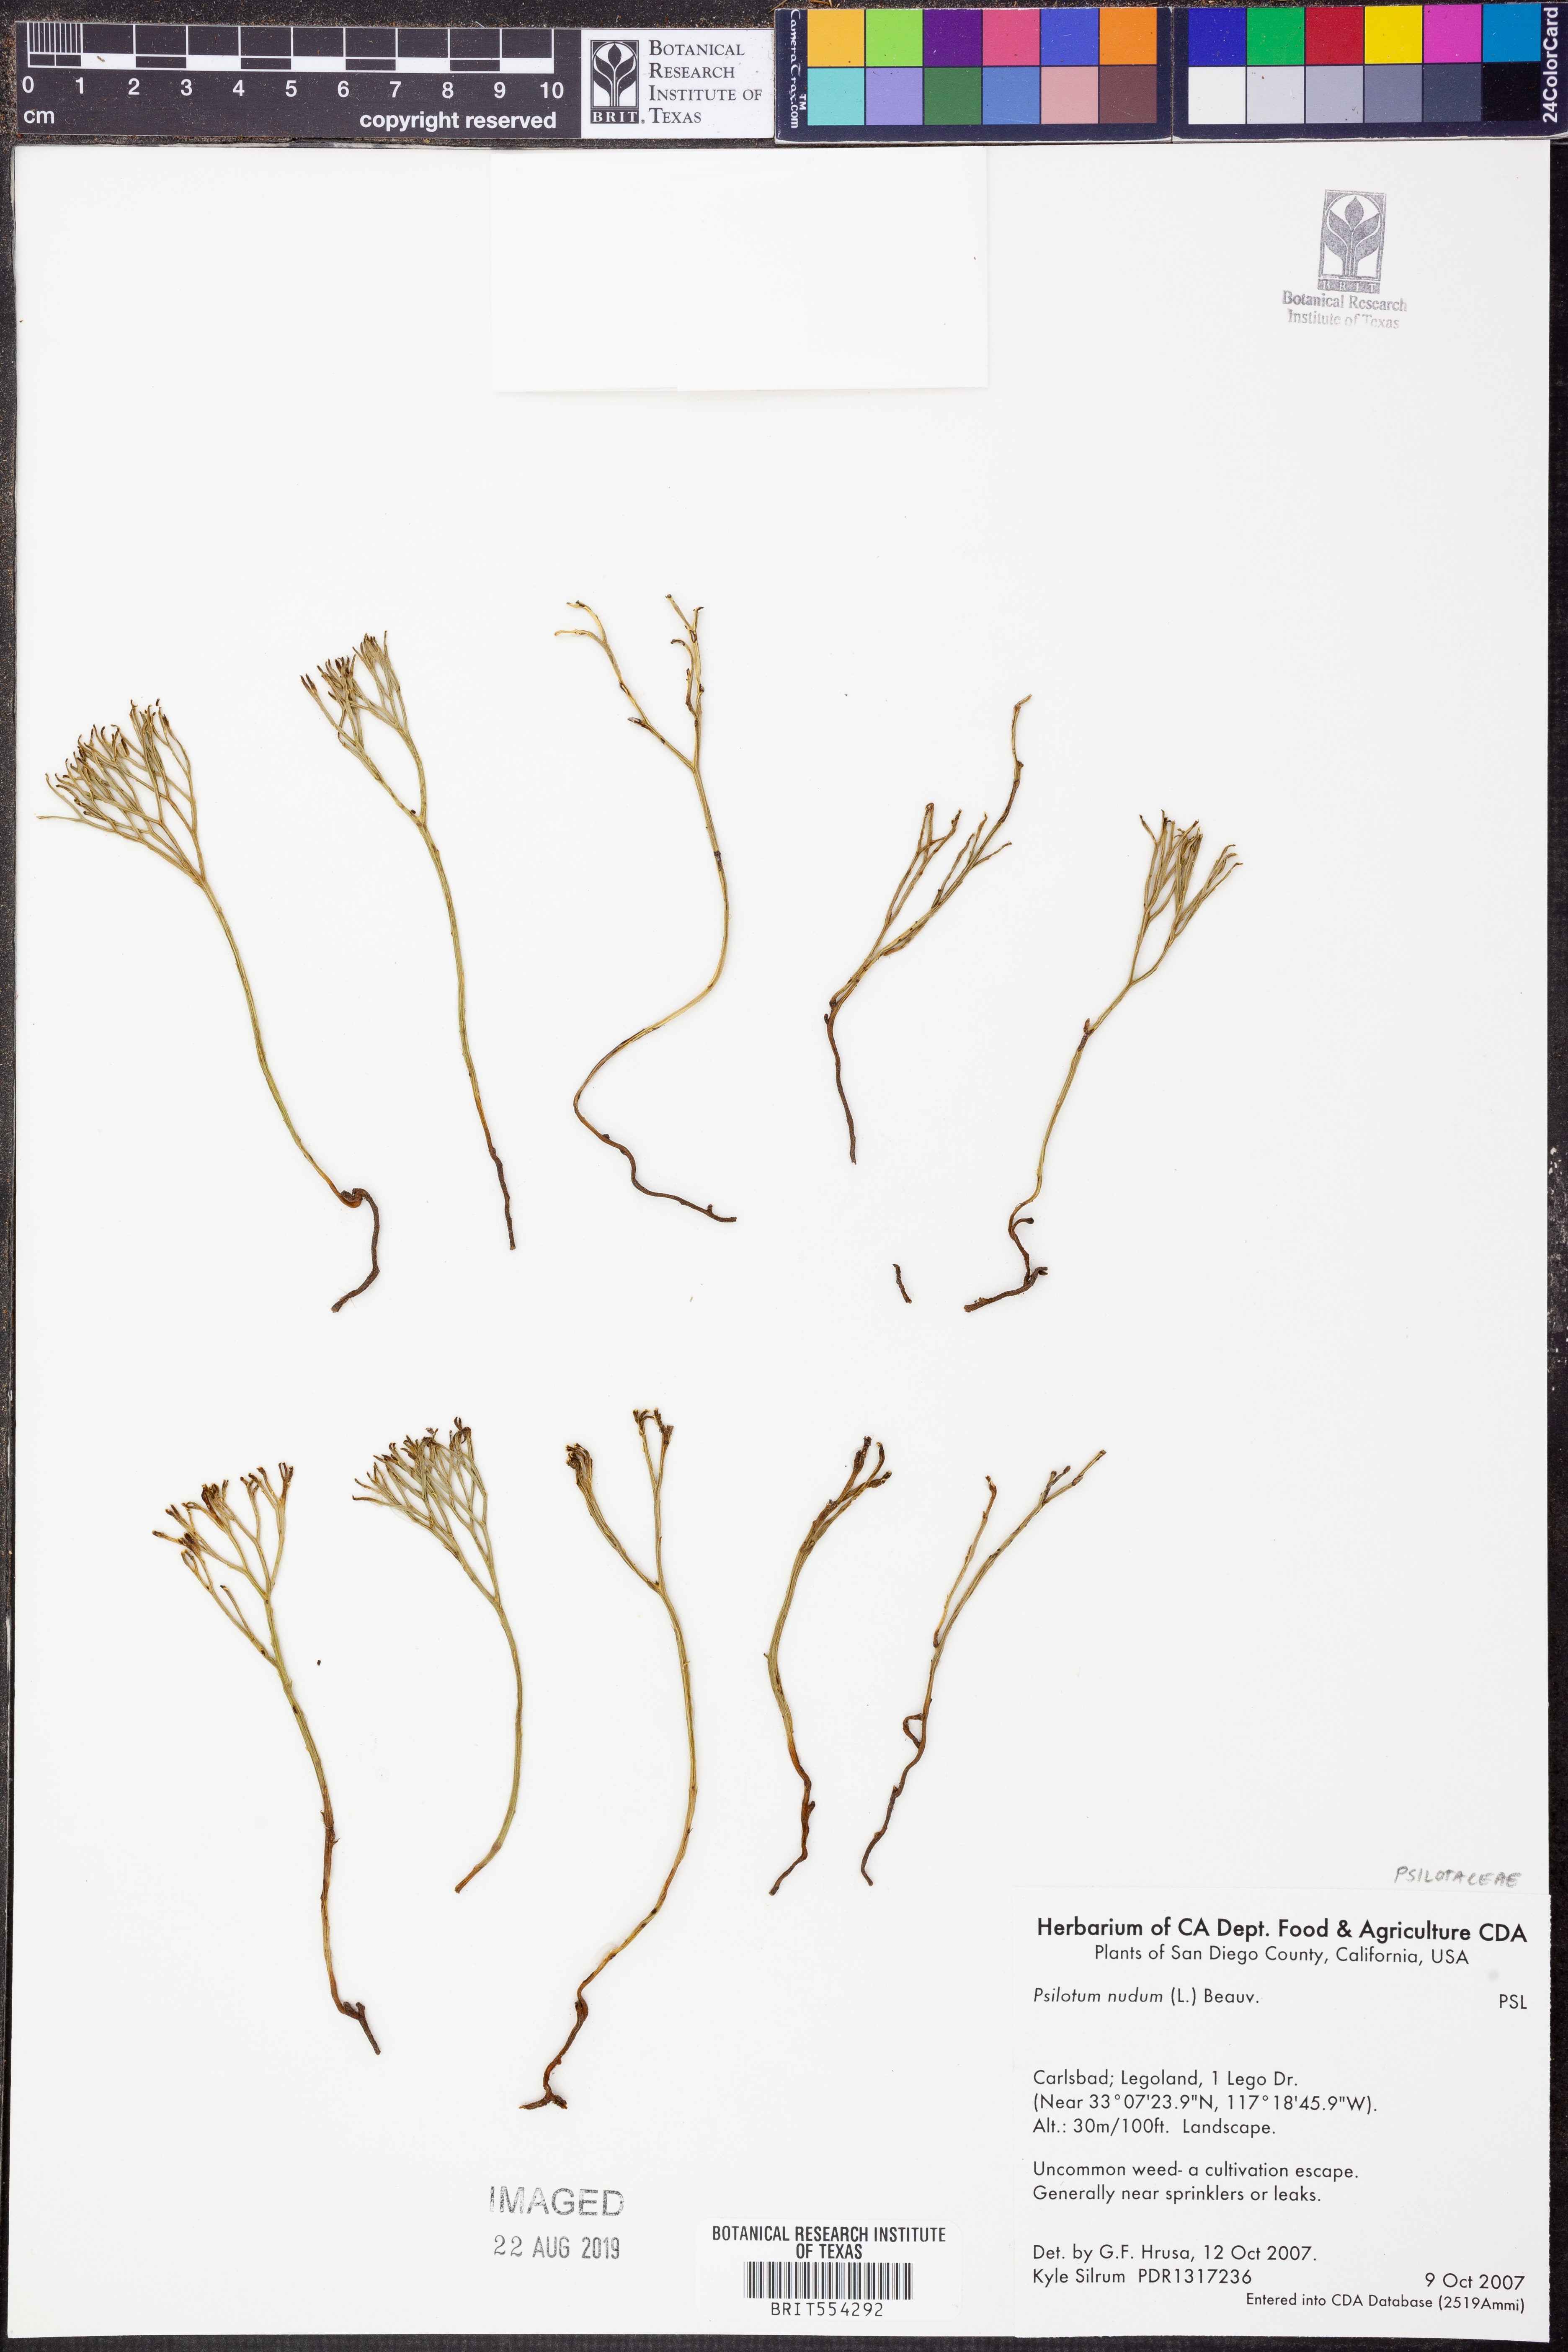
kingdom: Plantae
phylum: Tracheophyta
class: Polypodiopsida
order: Psilotales
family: Psilotaceae
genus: Psilotum
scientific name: Psilotum nudum
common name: Skeleton fork fern
